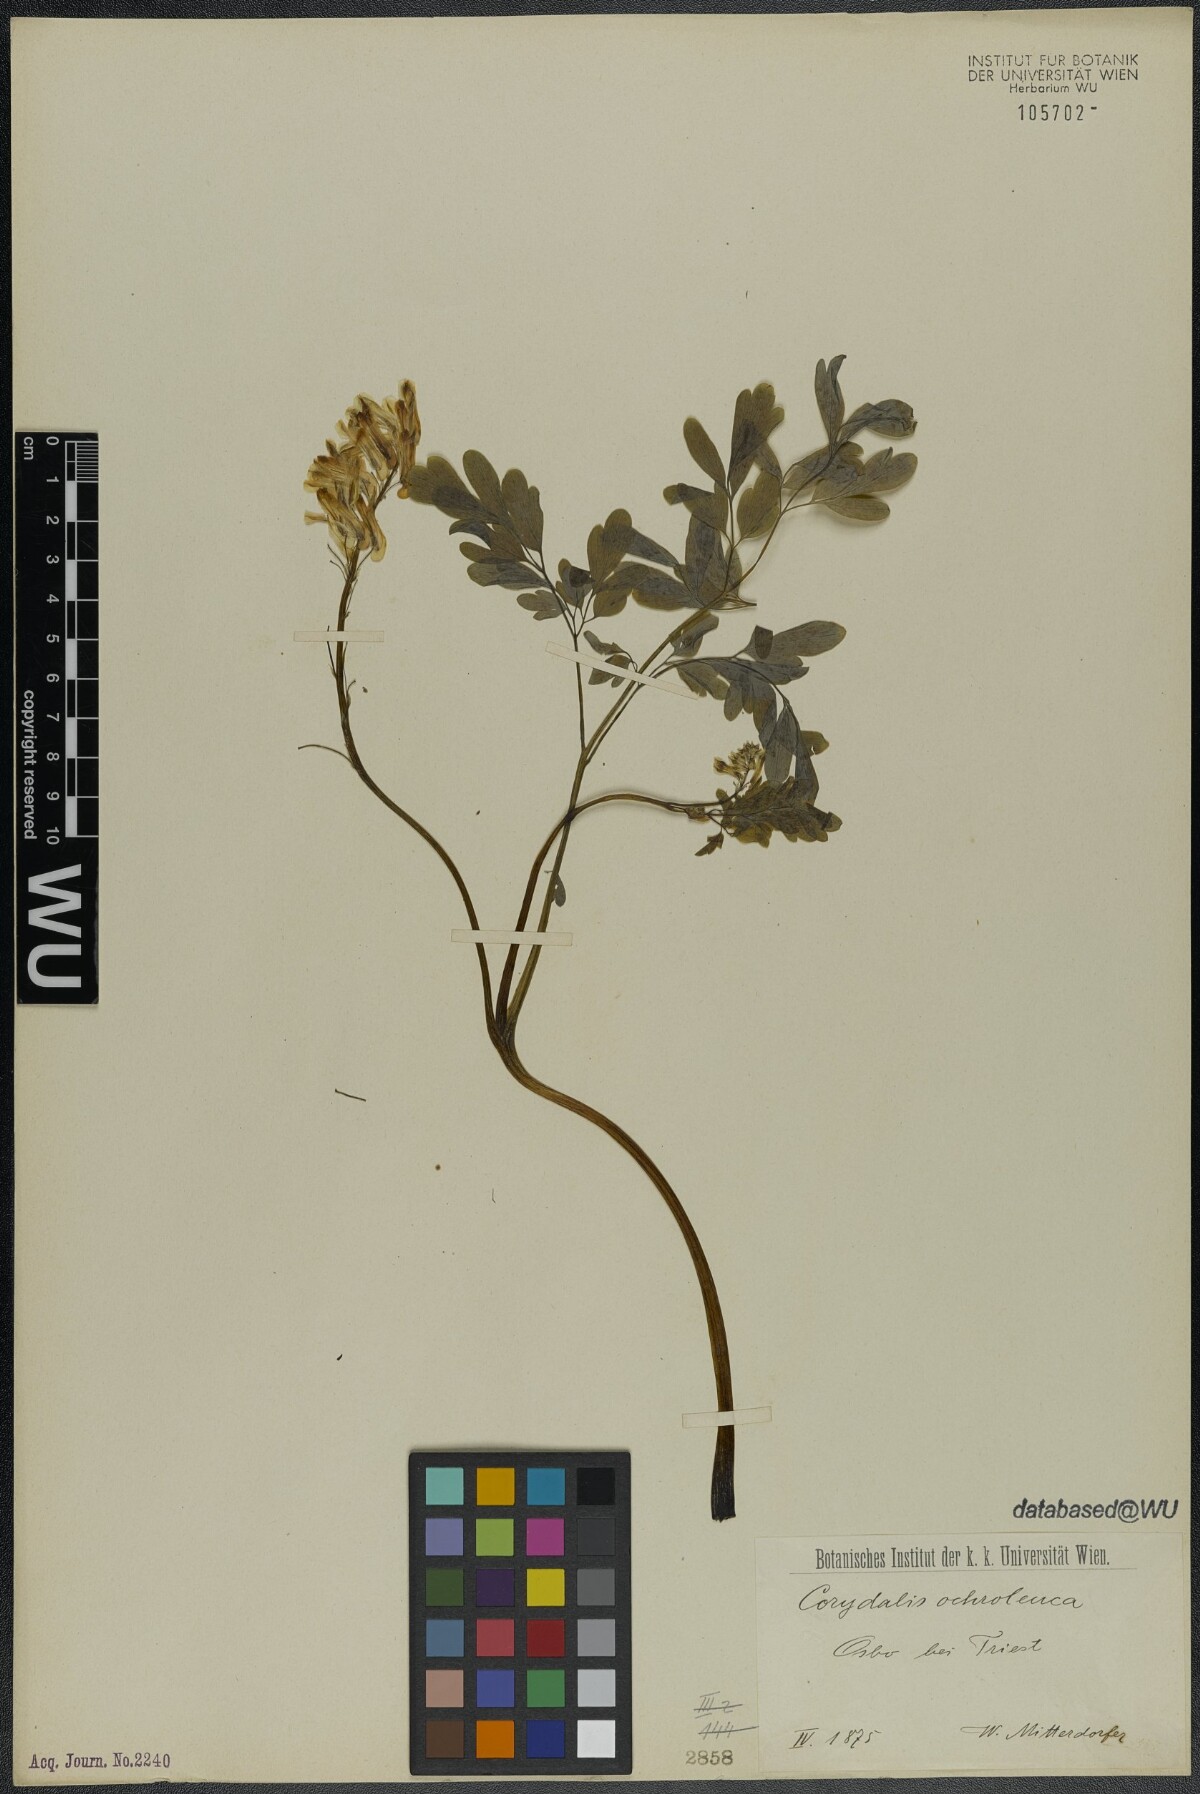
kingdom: Plantae
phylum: Tracheophyta
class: Magnoliopsida
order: Ranunculales
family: Papaveraceae
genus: Pseudofumaria
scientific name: Pseudofumaria alba
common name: Pale corydalis
